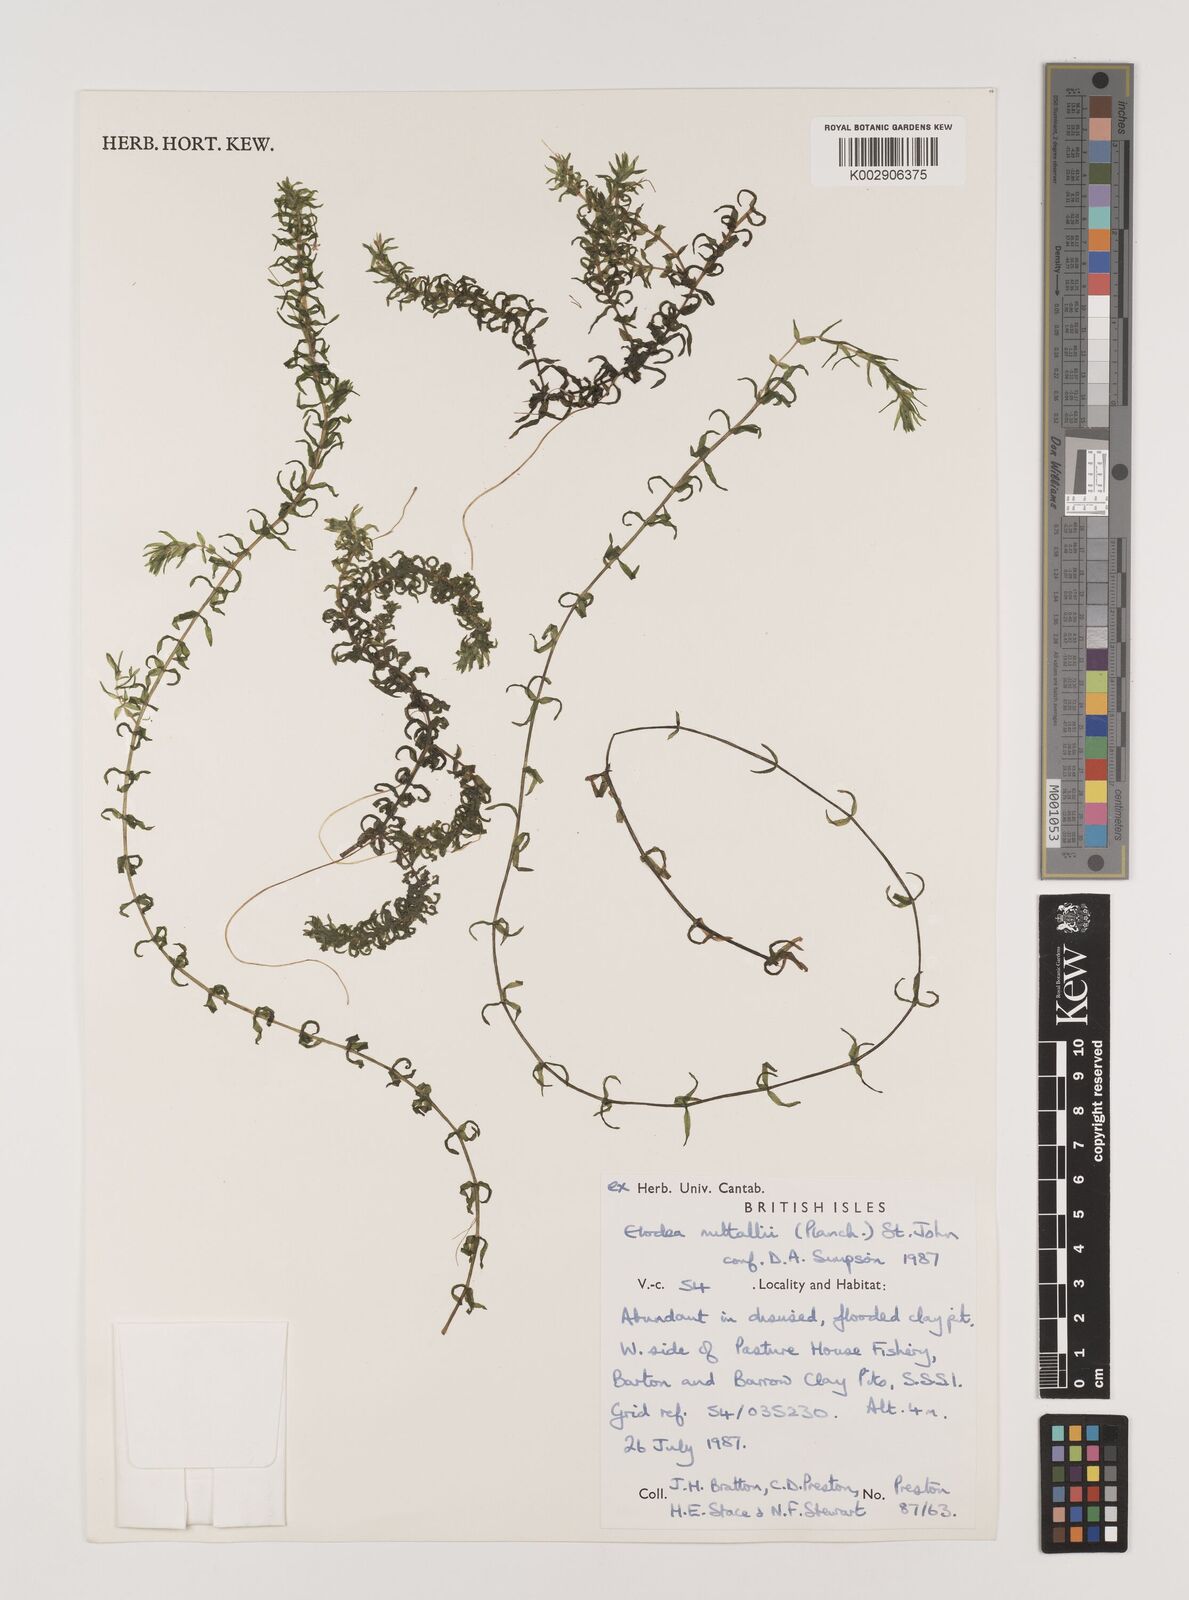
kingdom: Plantae
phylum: Tracheophyta
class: Liliopsida
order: Alismatales
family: Hydrocharitaceae
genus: Elodea
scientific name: Elodea nuttallii
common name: Nuttall's waterweed
